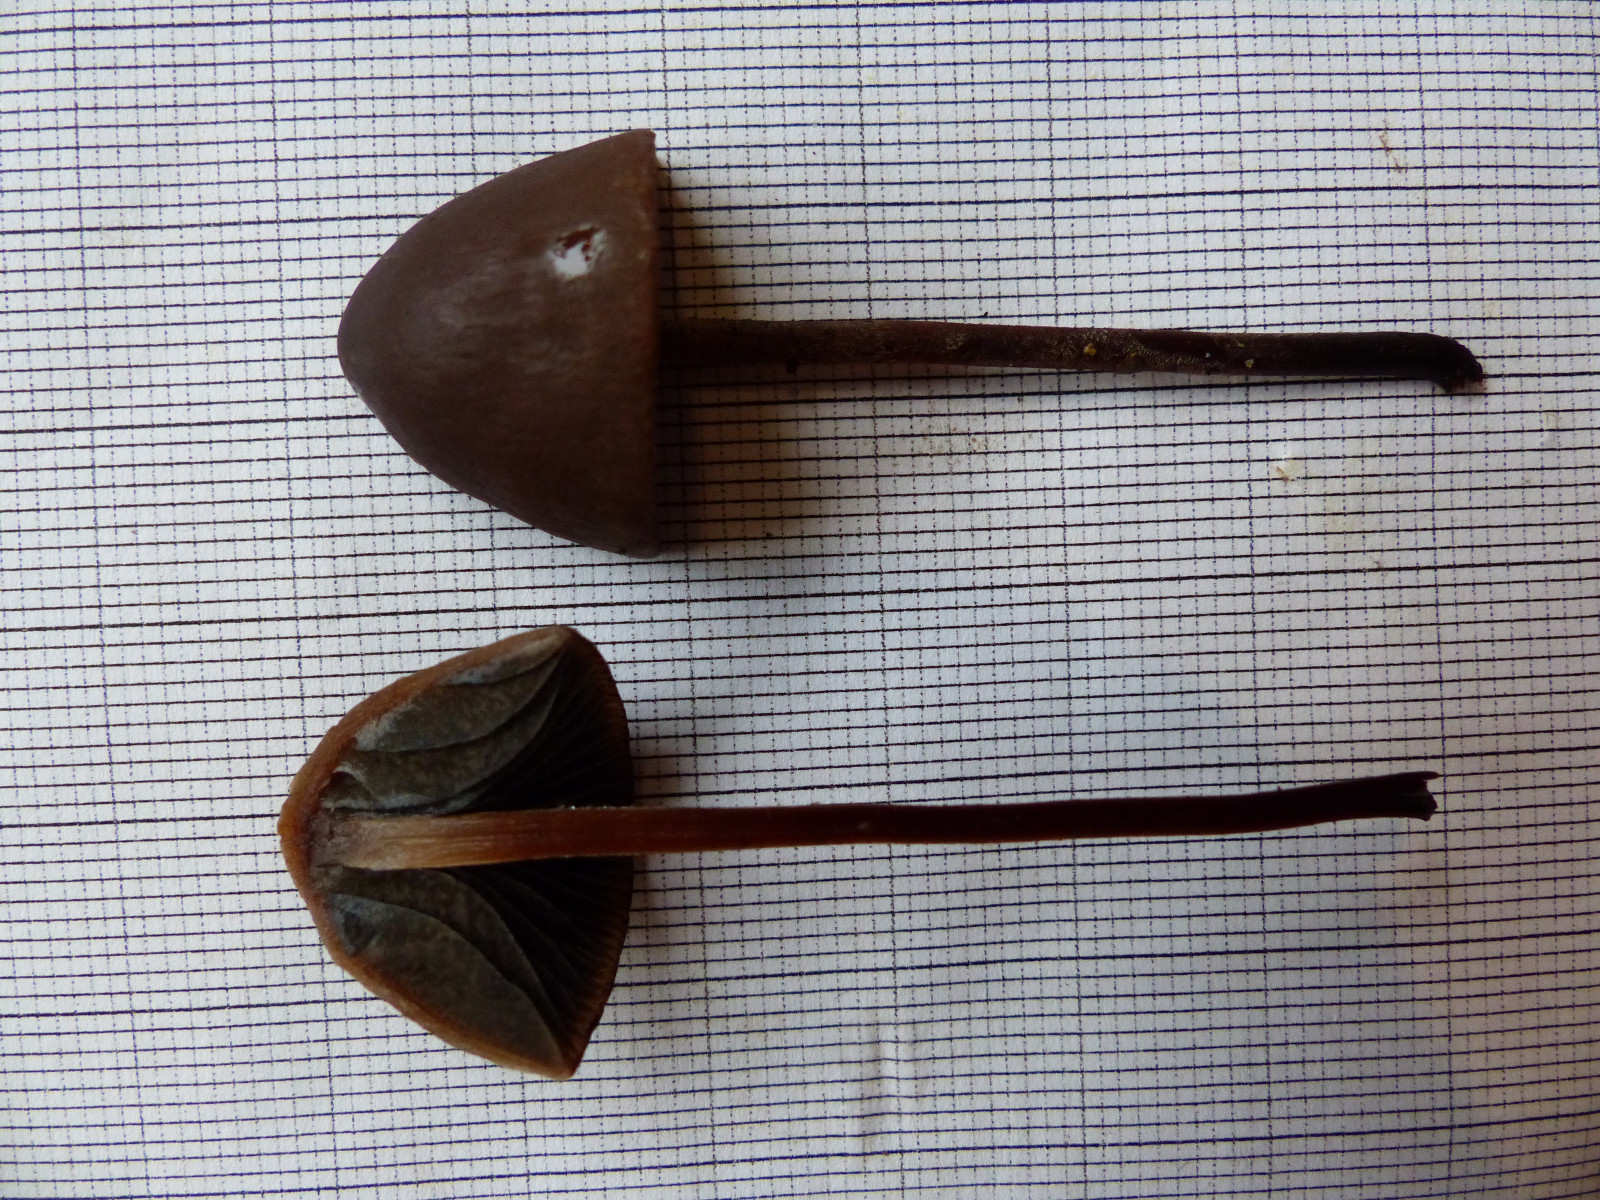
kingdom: Fungi
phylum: Basidiomycota
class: Agaricomycetes
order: Agaricales
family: Bolbitiaceae
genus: Panaeolus
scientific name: Panaeolus acuminatus
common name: høj glanshat
